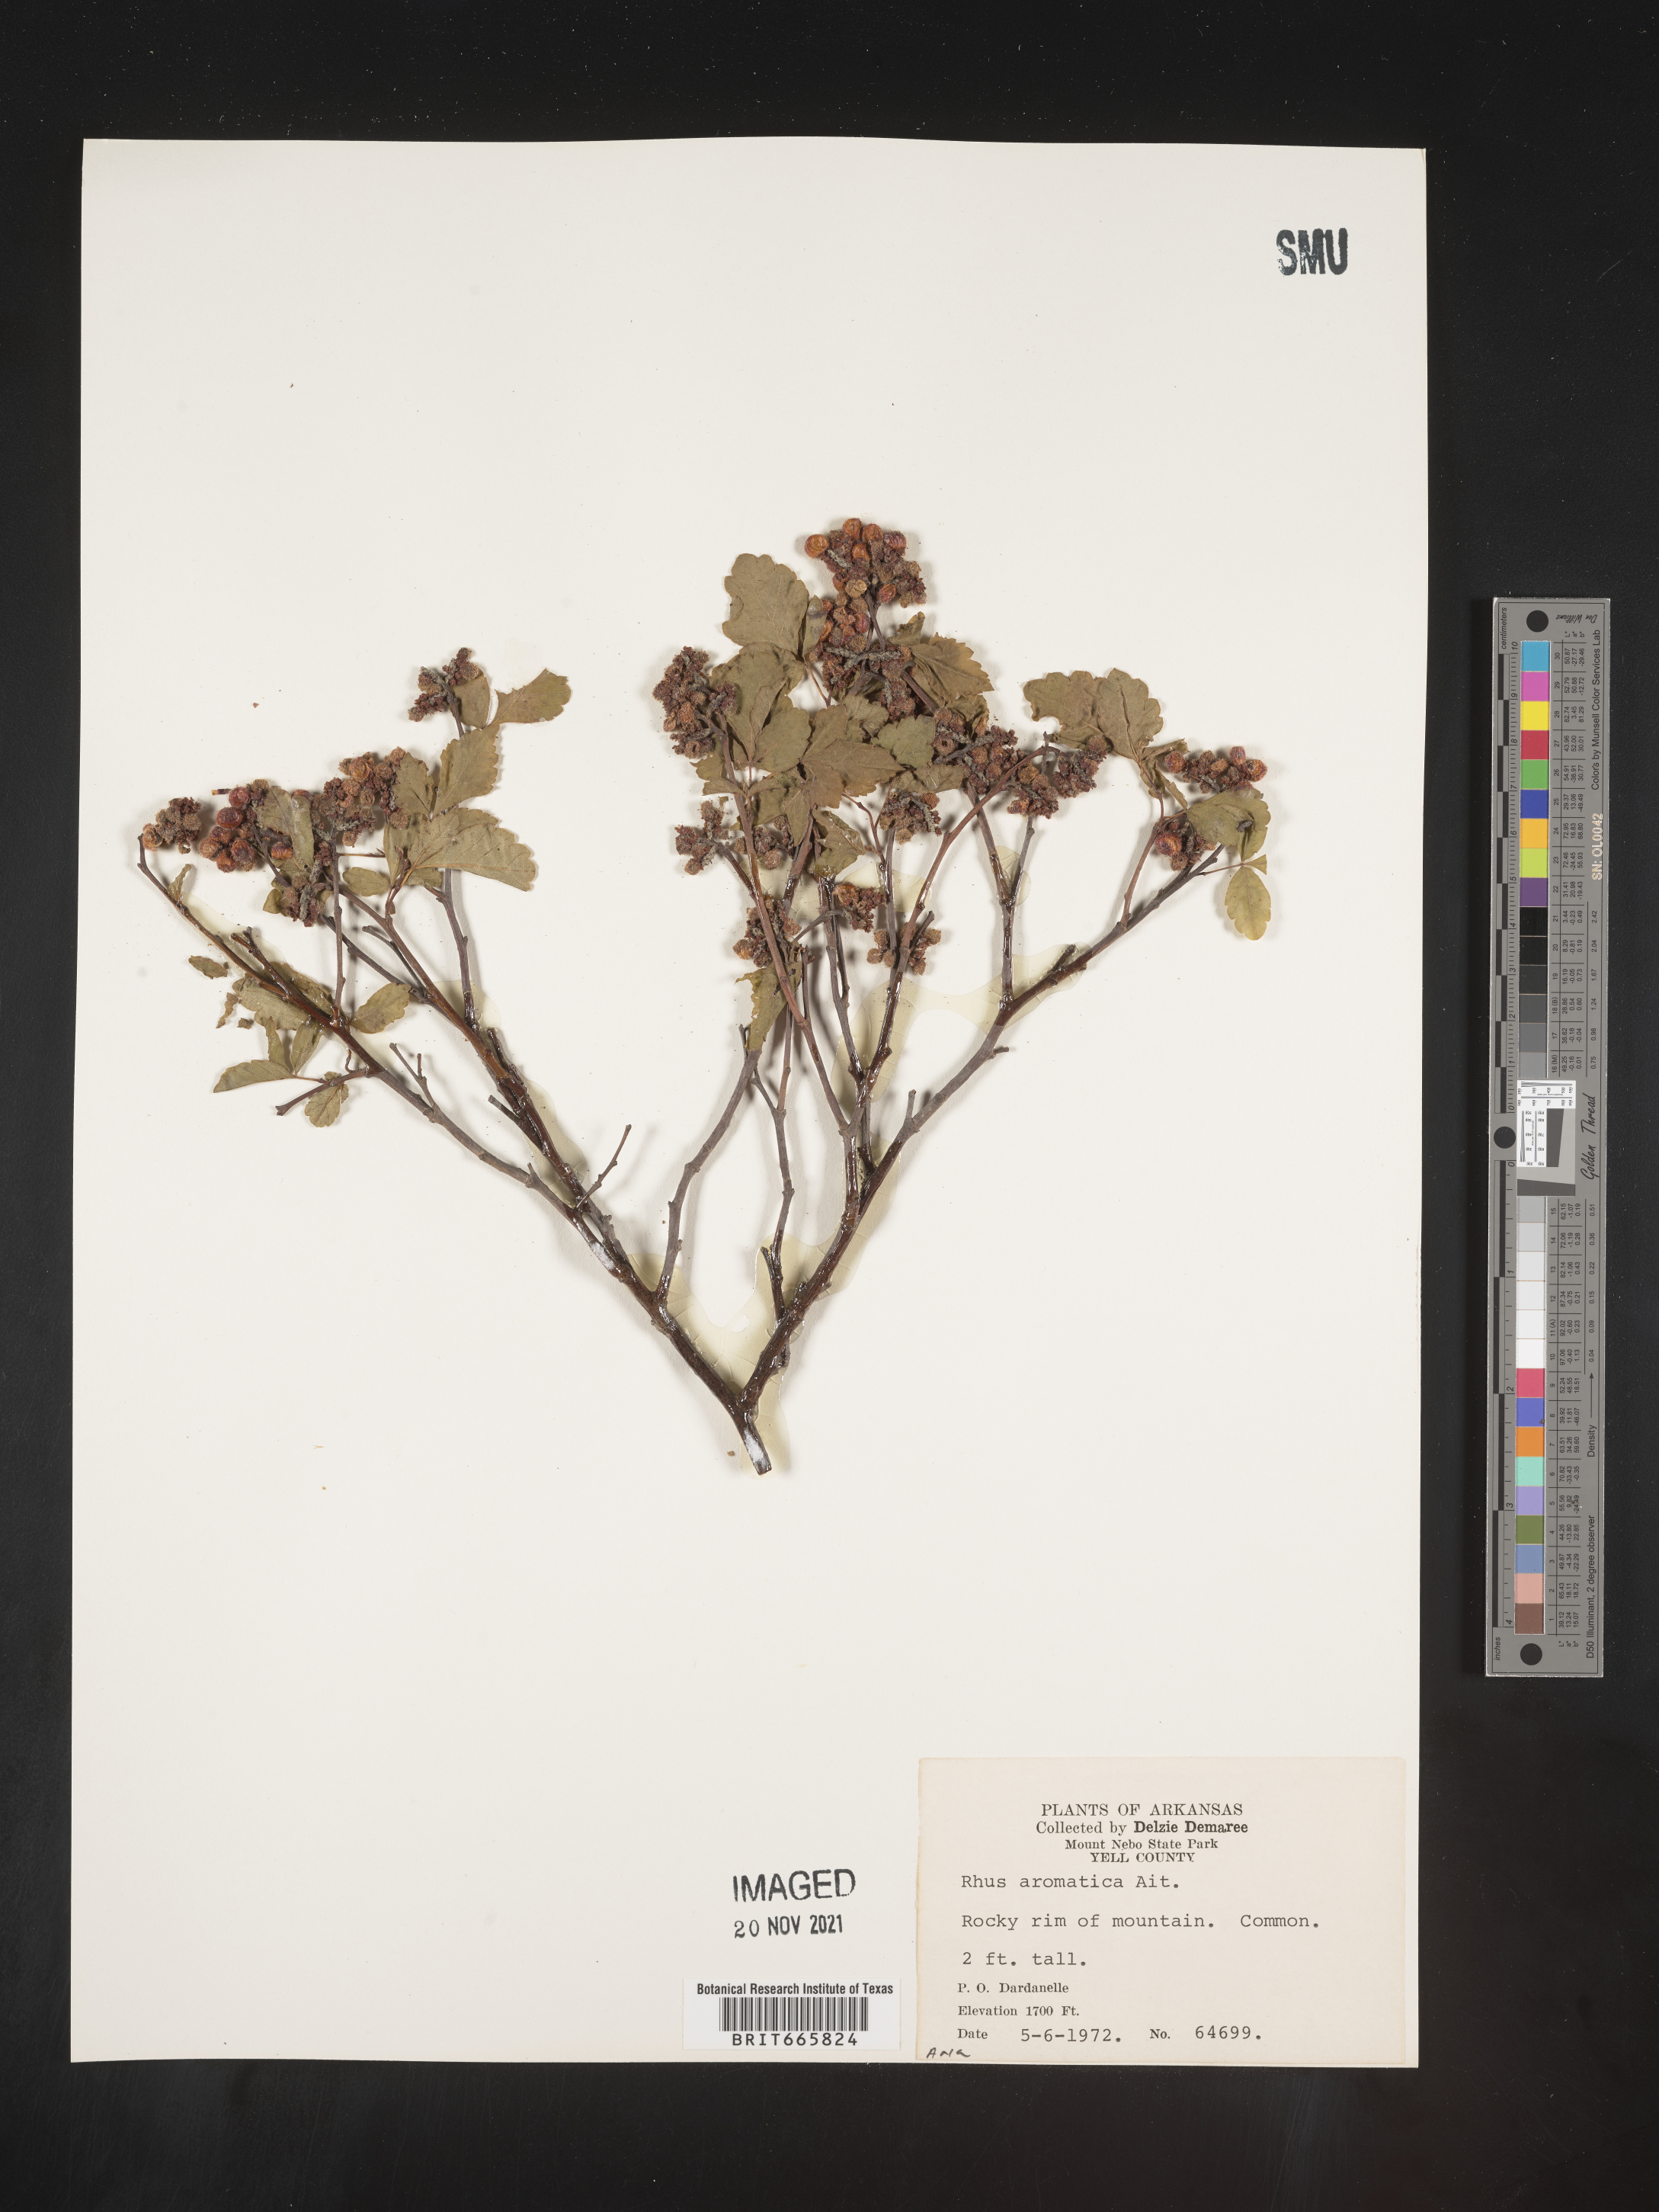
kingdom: Plantae
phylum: Tracheophyta
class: Magnoliopsida
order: Sapindales
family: Anacardiaceae
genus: Rhus
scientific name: Rhus aromatica
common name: Aromatic sumac
